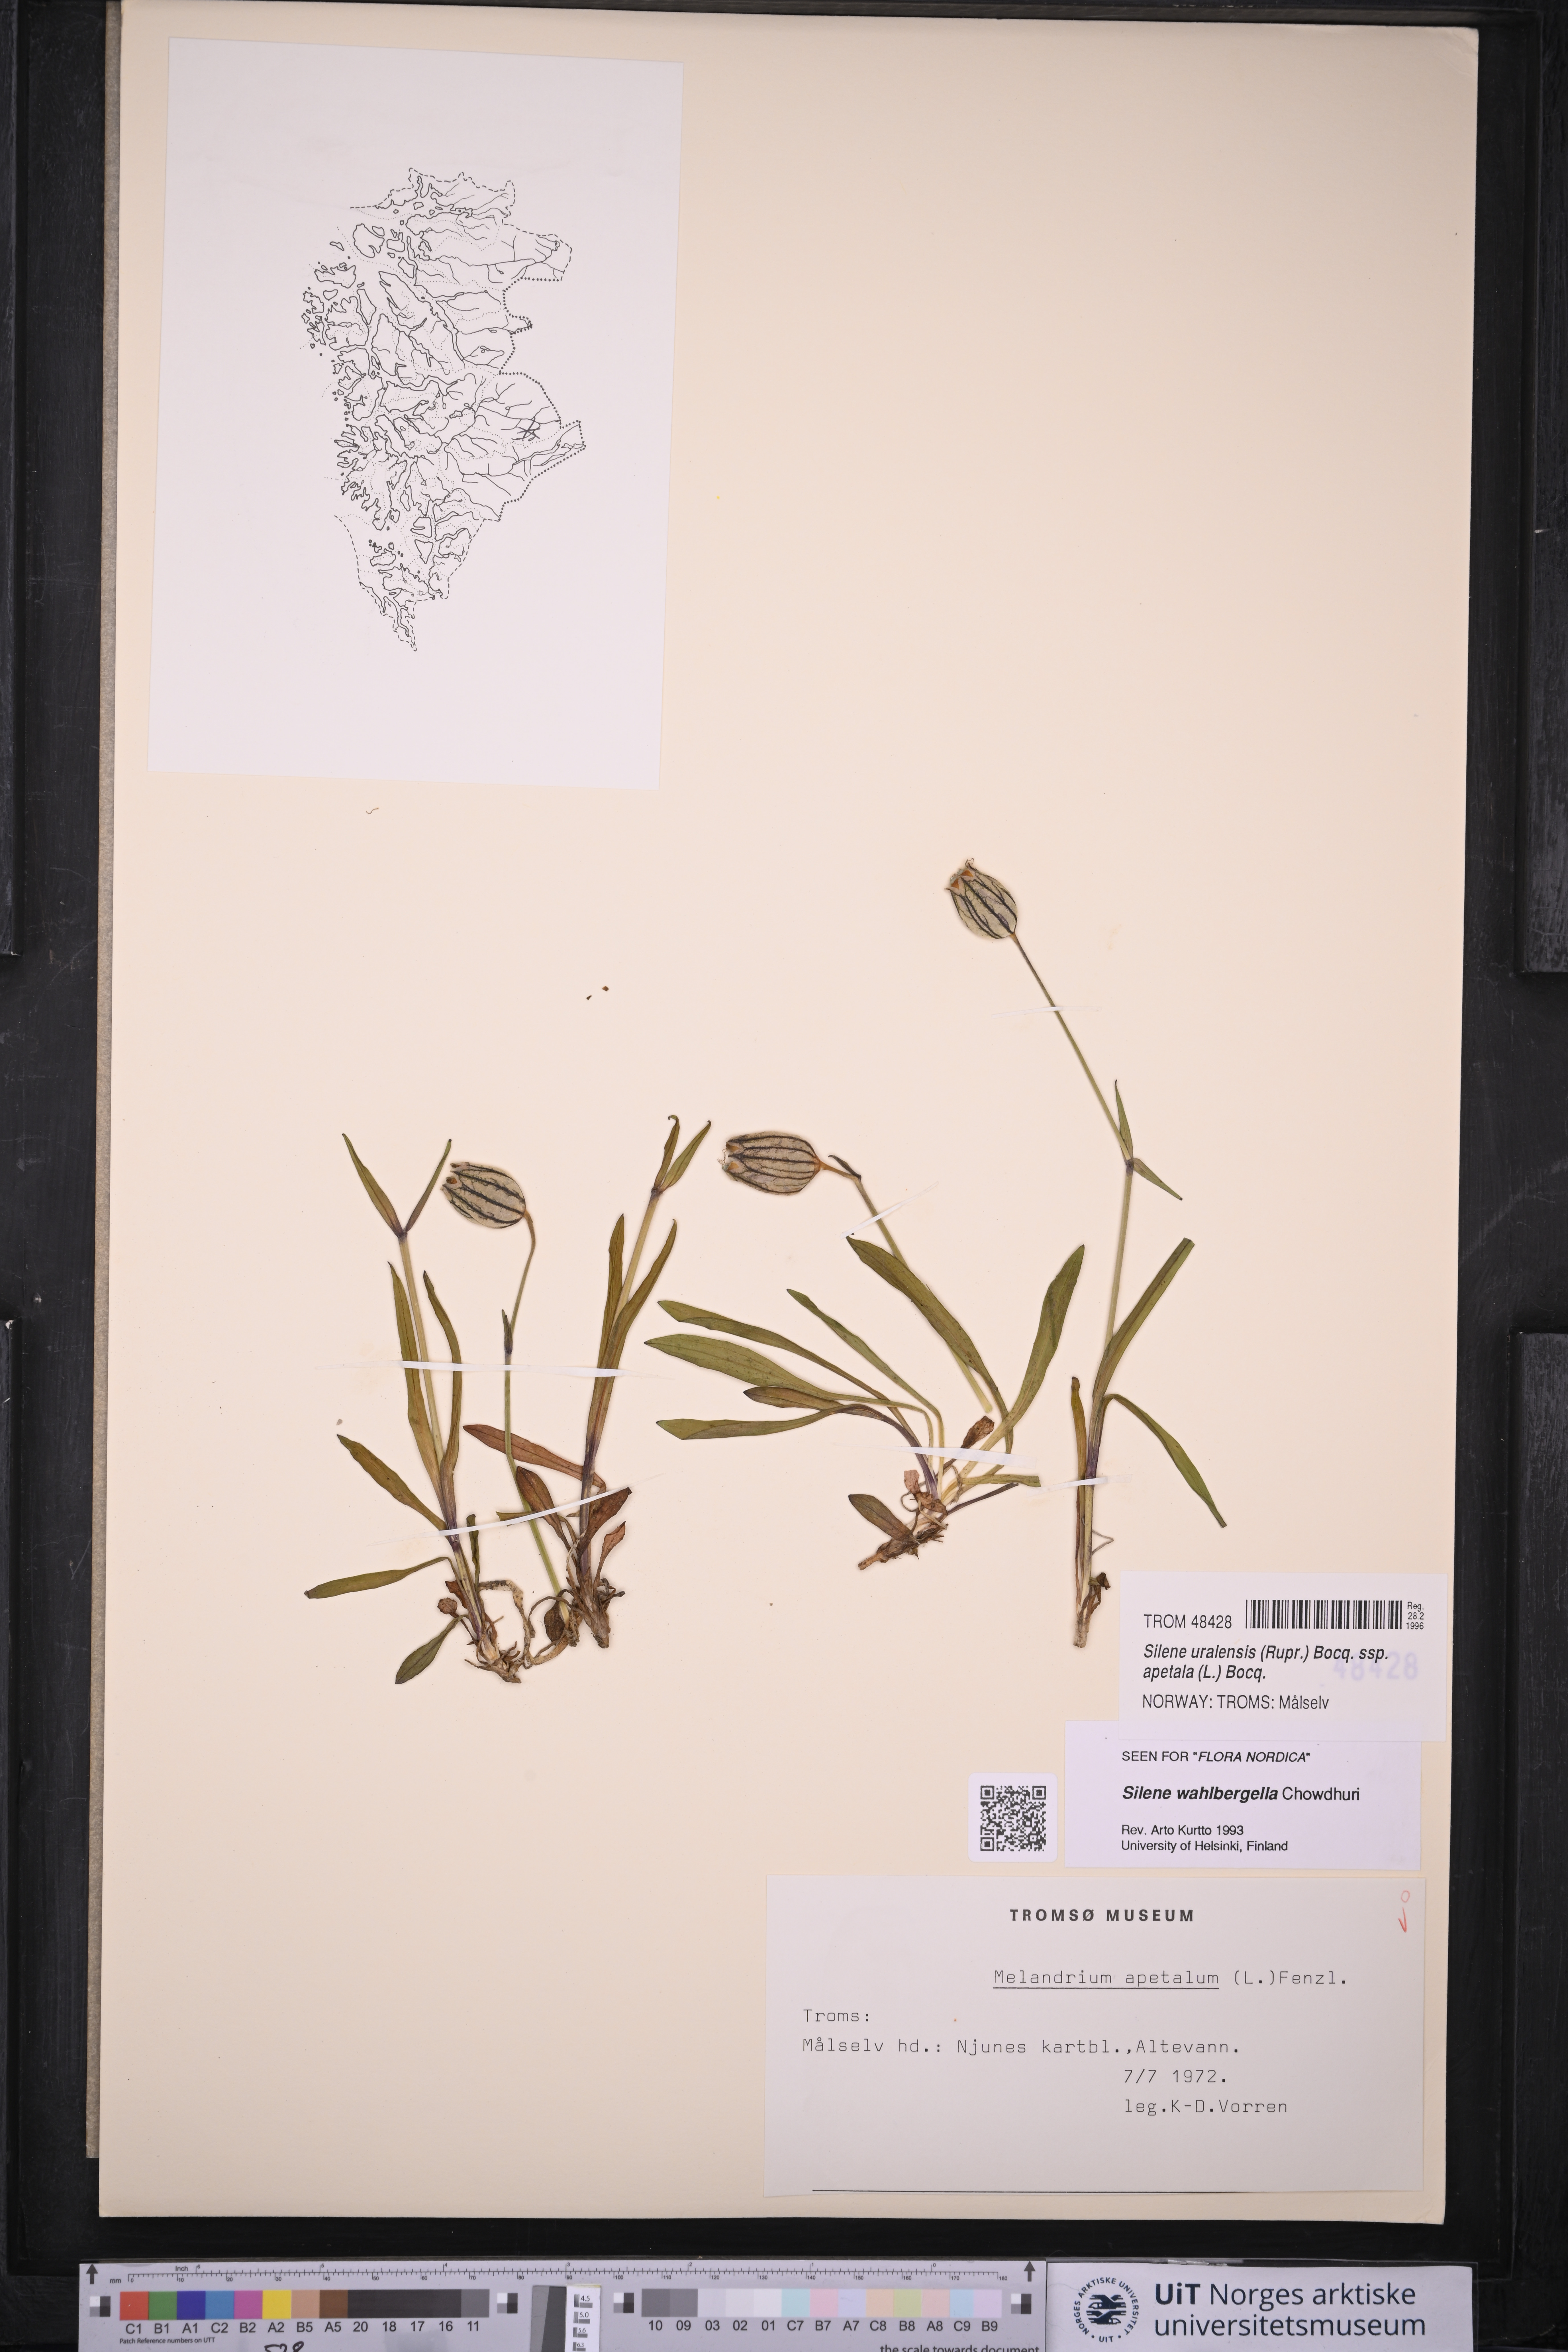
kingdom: Plantae
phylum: Tracheophyta
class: Magnoliopsida
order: Caryophyllales
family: Caryophyllaceae
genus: Silene
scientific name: Silene wahlbergella
